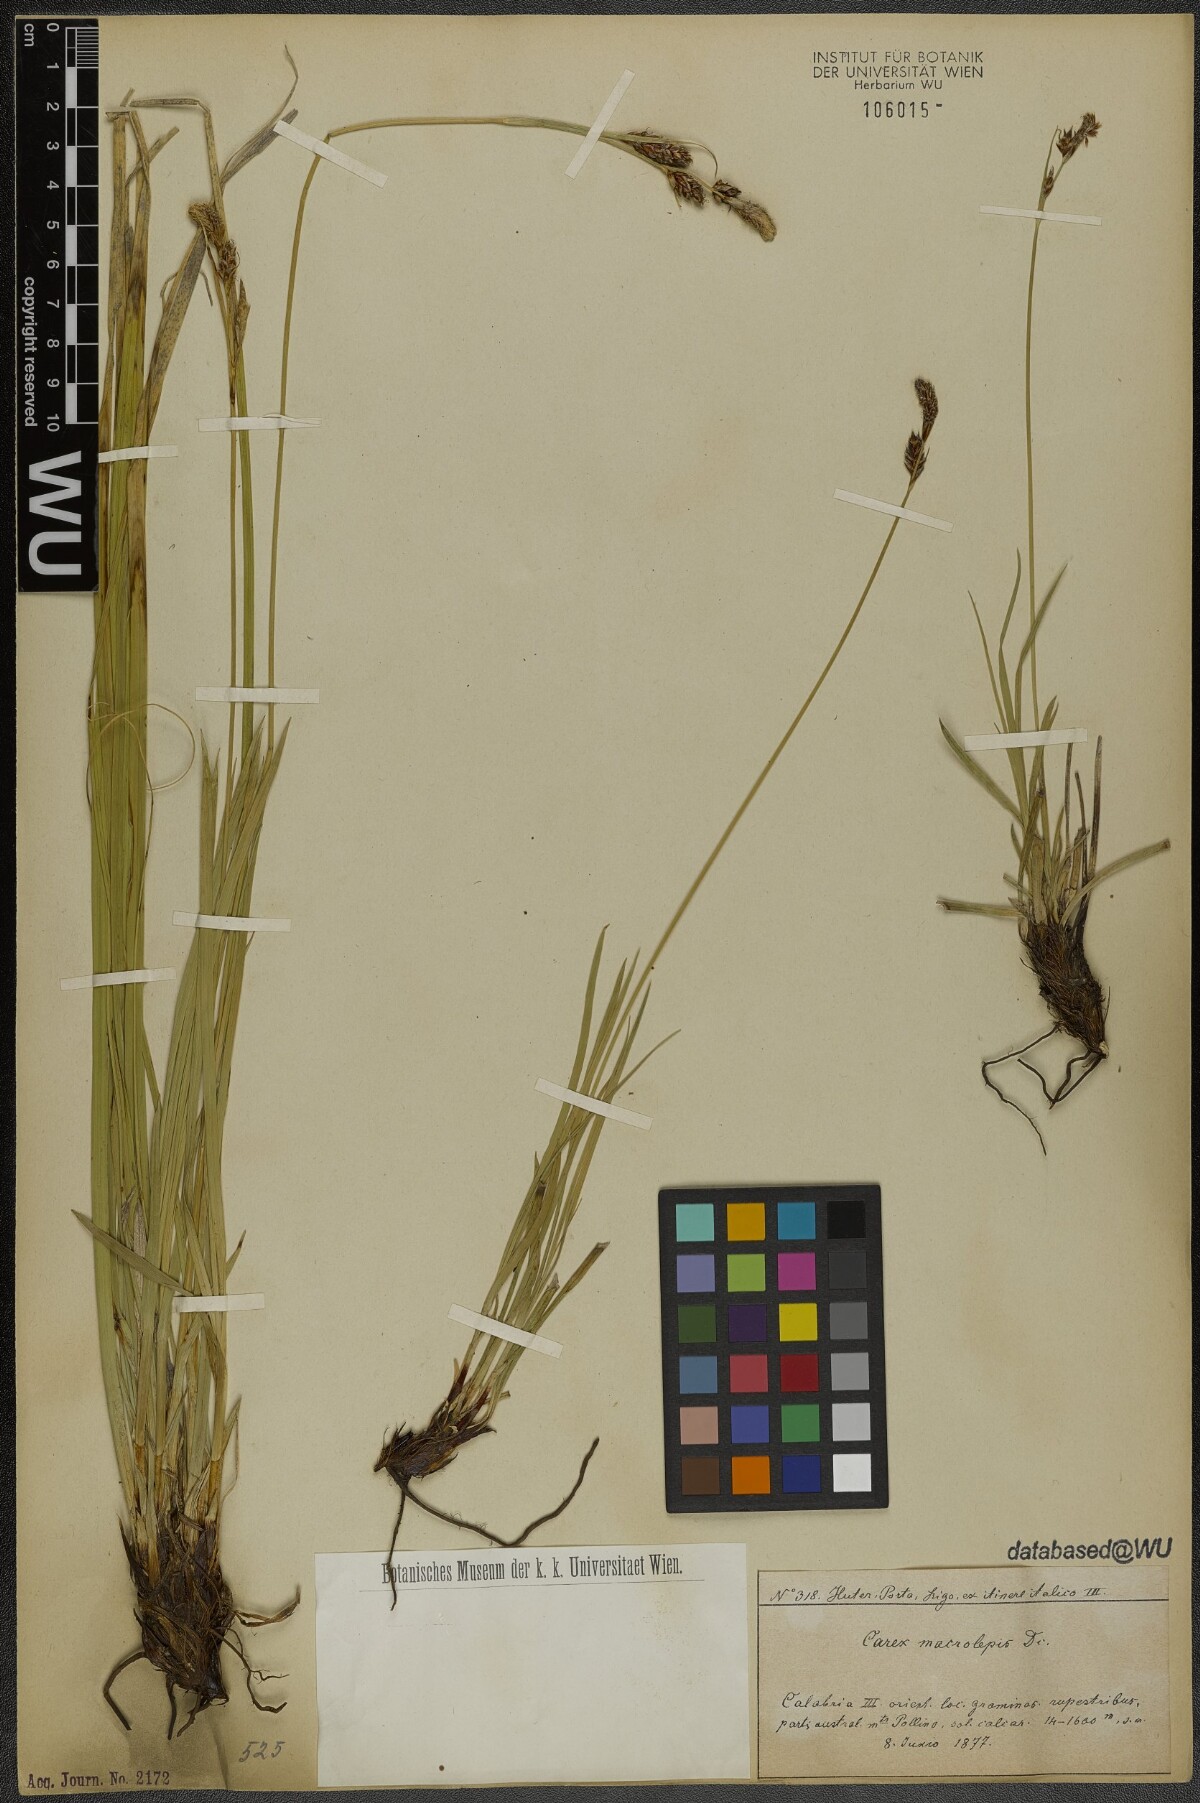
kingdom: Plantae
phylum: Tracheophyta
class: Liliopsida
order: Poales
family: Cyperaceae
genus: Carex
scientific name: Carex macrolepis
